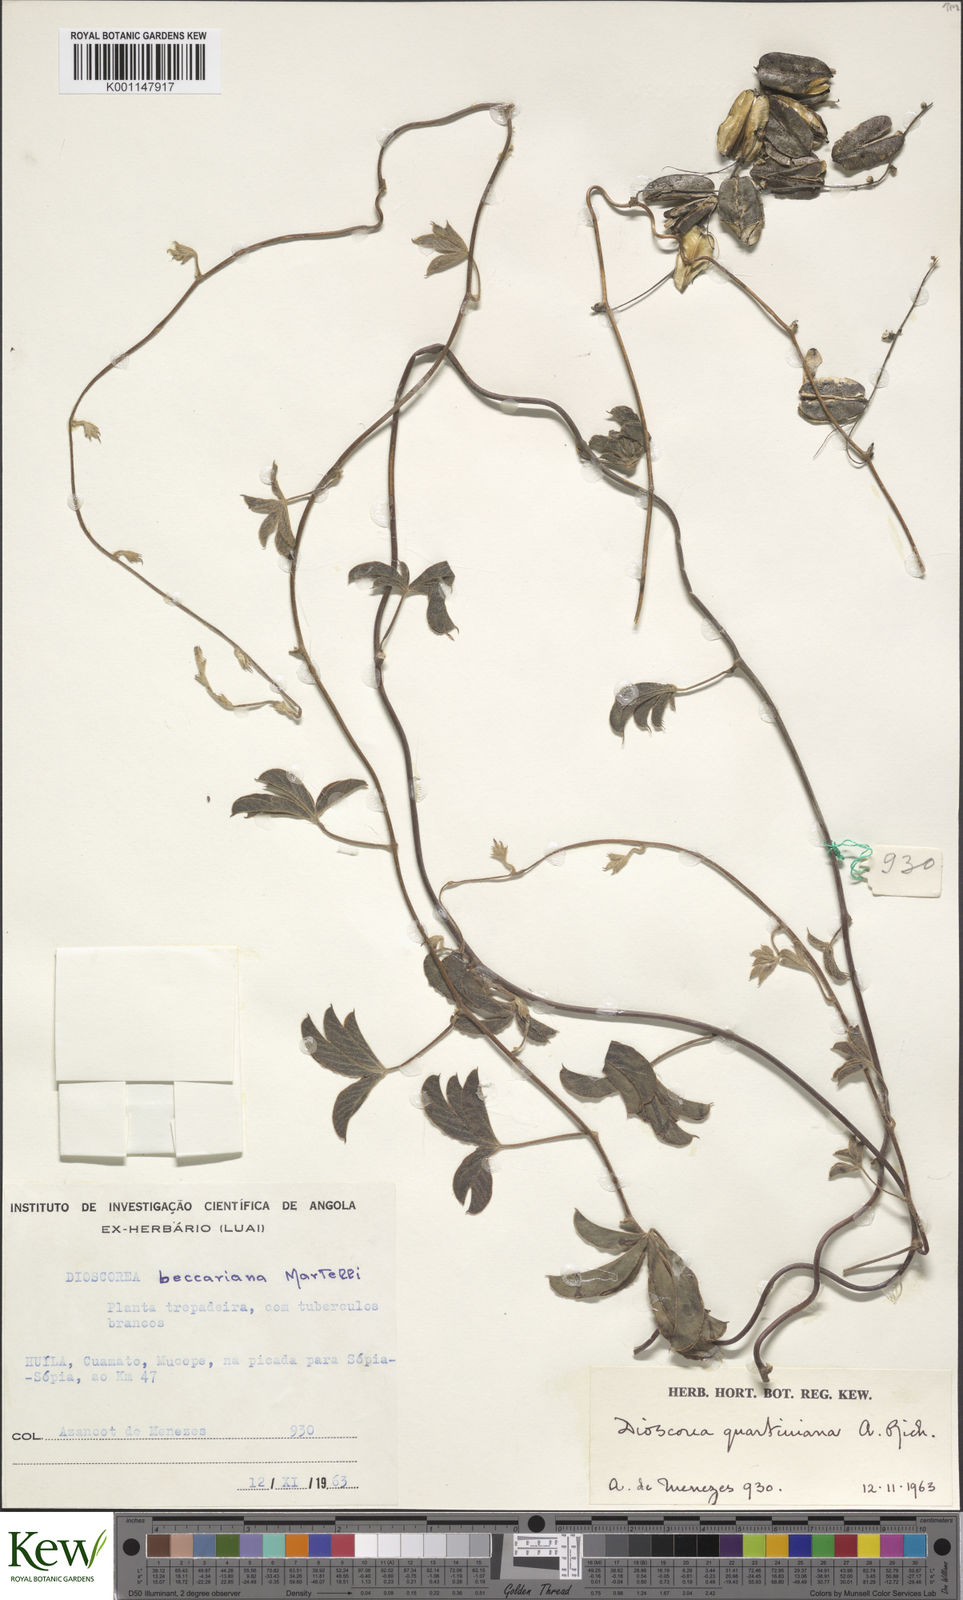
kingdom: Plantae
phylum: Tracheophyta
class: Liliopsida
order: Dioscoreales
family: Dioscoreaceae
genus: Dioscorea
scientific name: Dioscorea quartiniana
